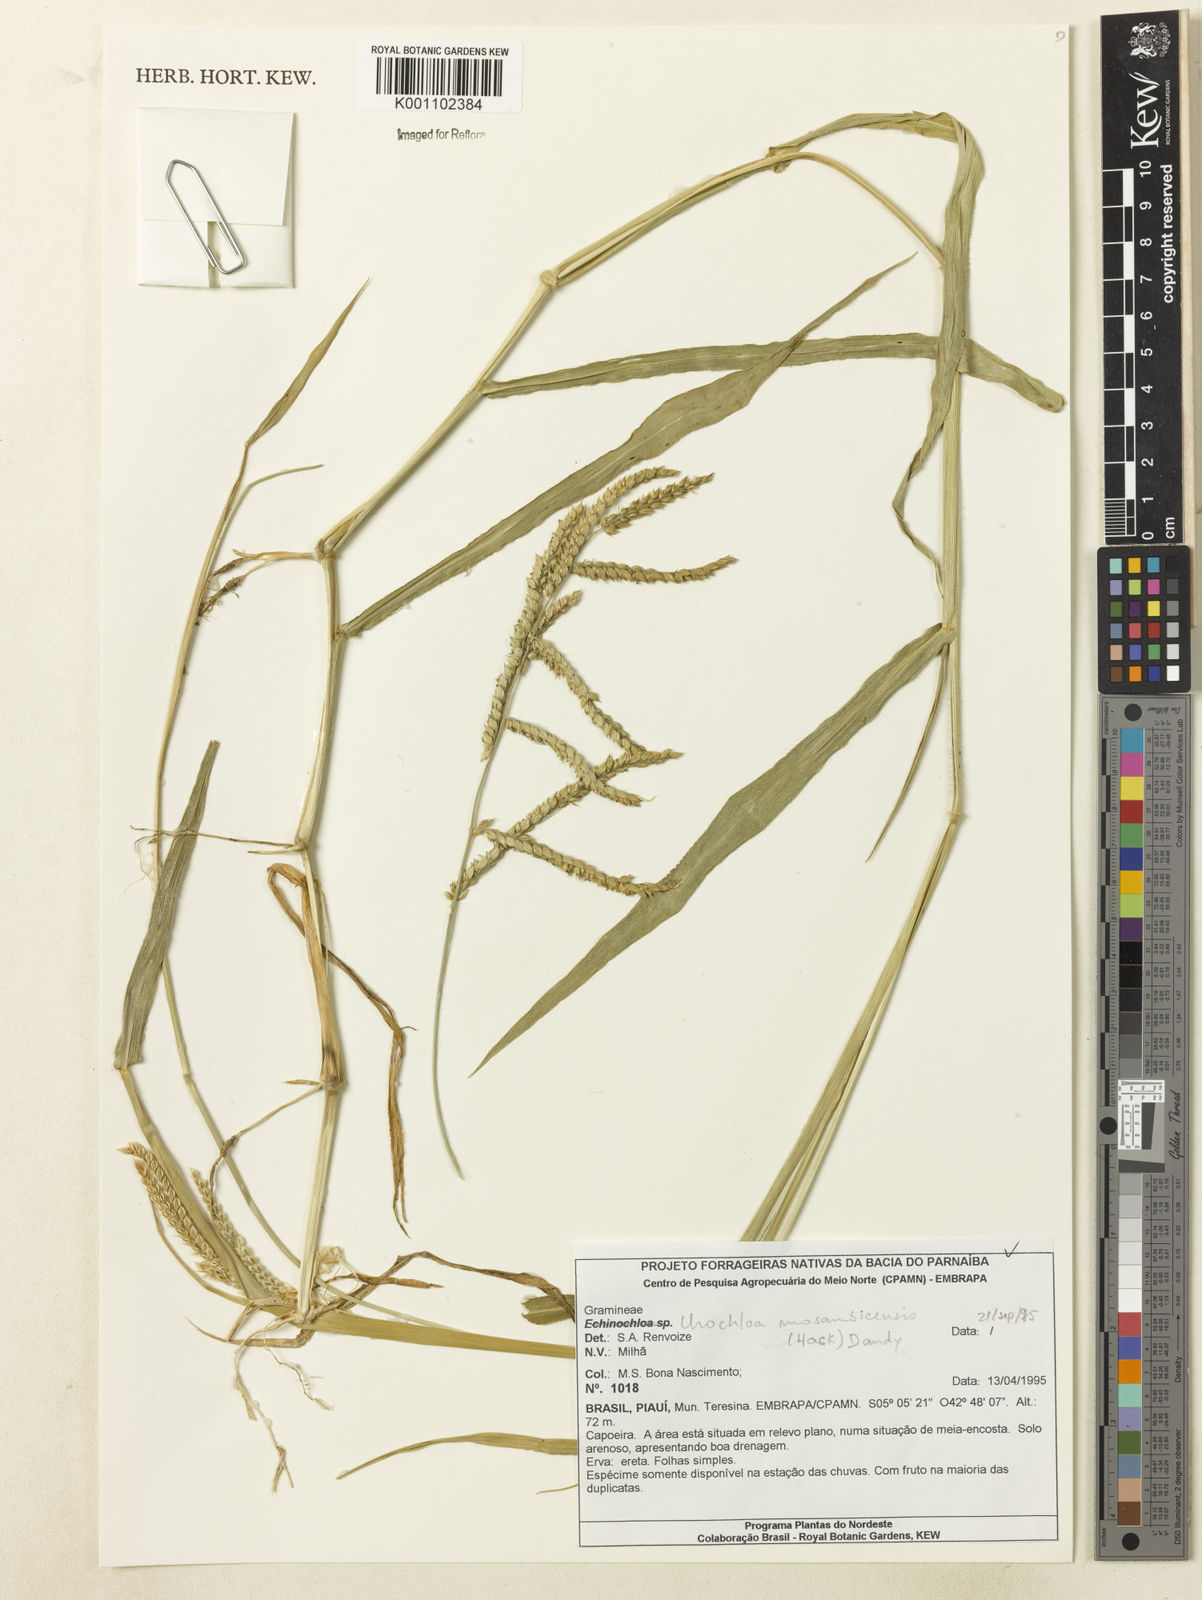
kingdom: Plantae
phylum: Tracheophyta
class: Liliopsida
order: Poales
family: Poaceae
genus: Urochloa
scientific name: Urochloa trichopus
